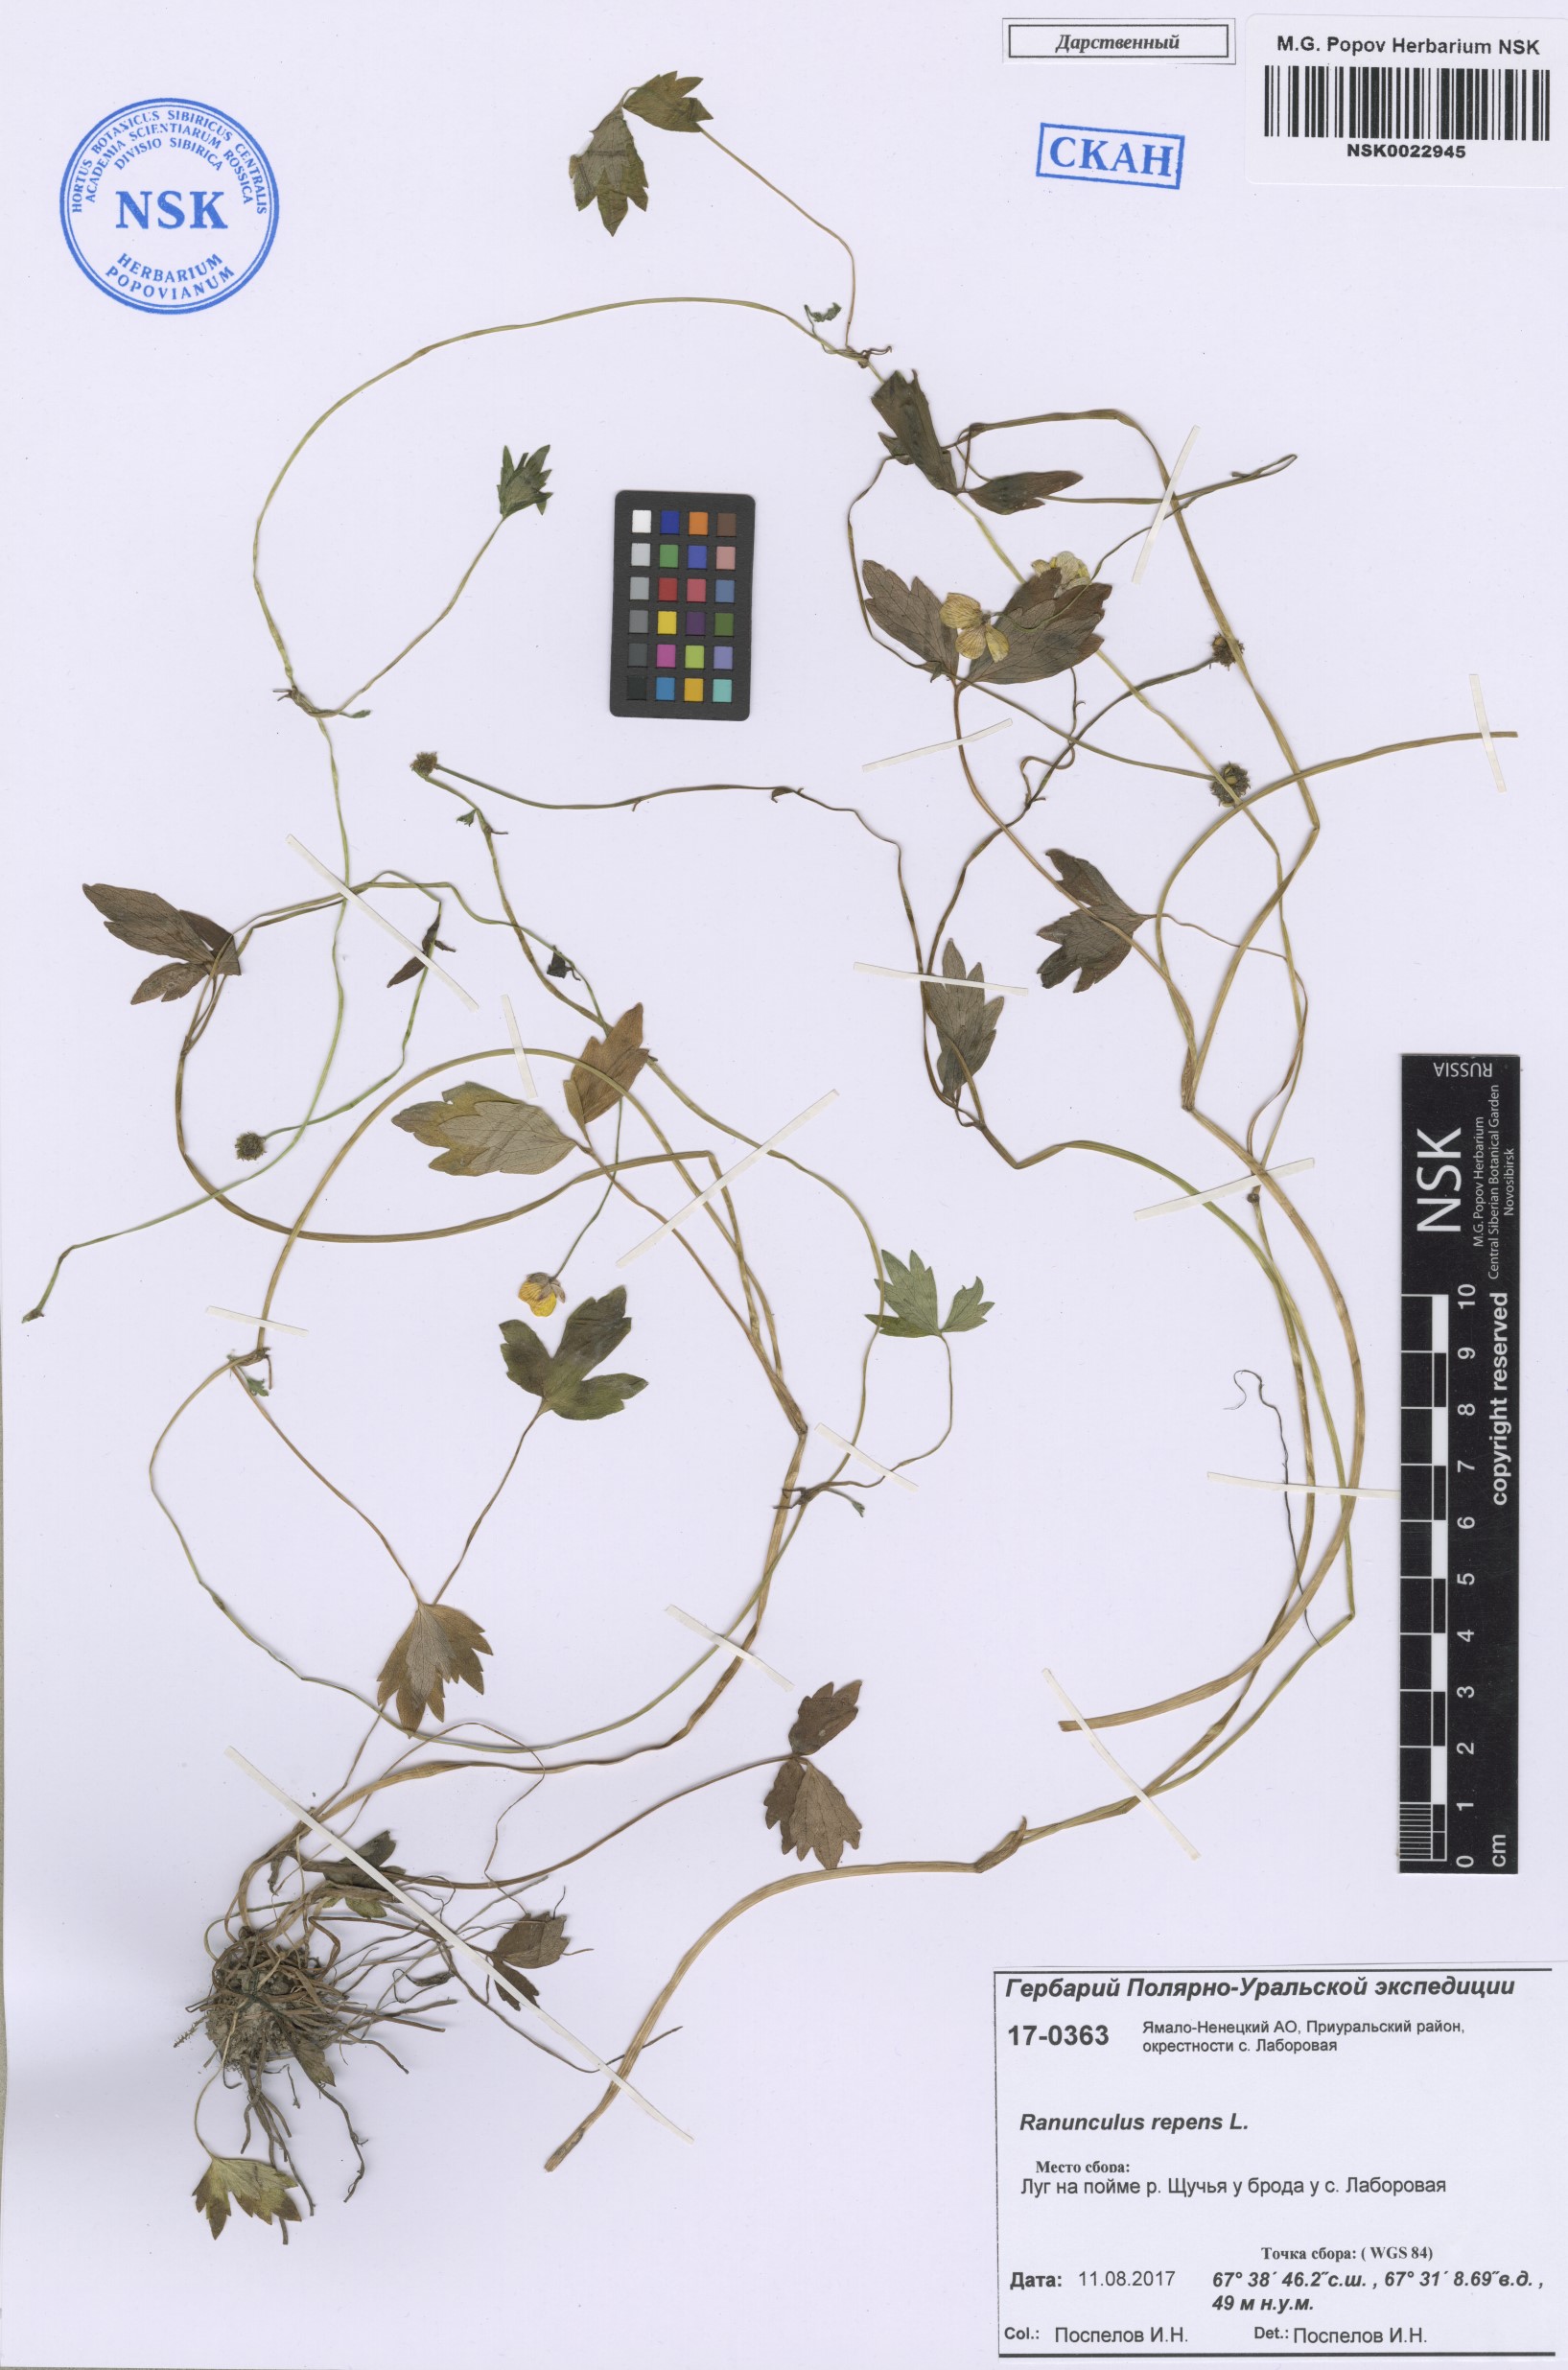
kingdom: Plantae
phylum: Tracheophyta
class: Magnoliopsida
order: Ranunculales
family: Ranunculaceae
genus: Ranunculus
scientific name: Ranunculus repens
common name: Creeping buttercup
